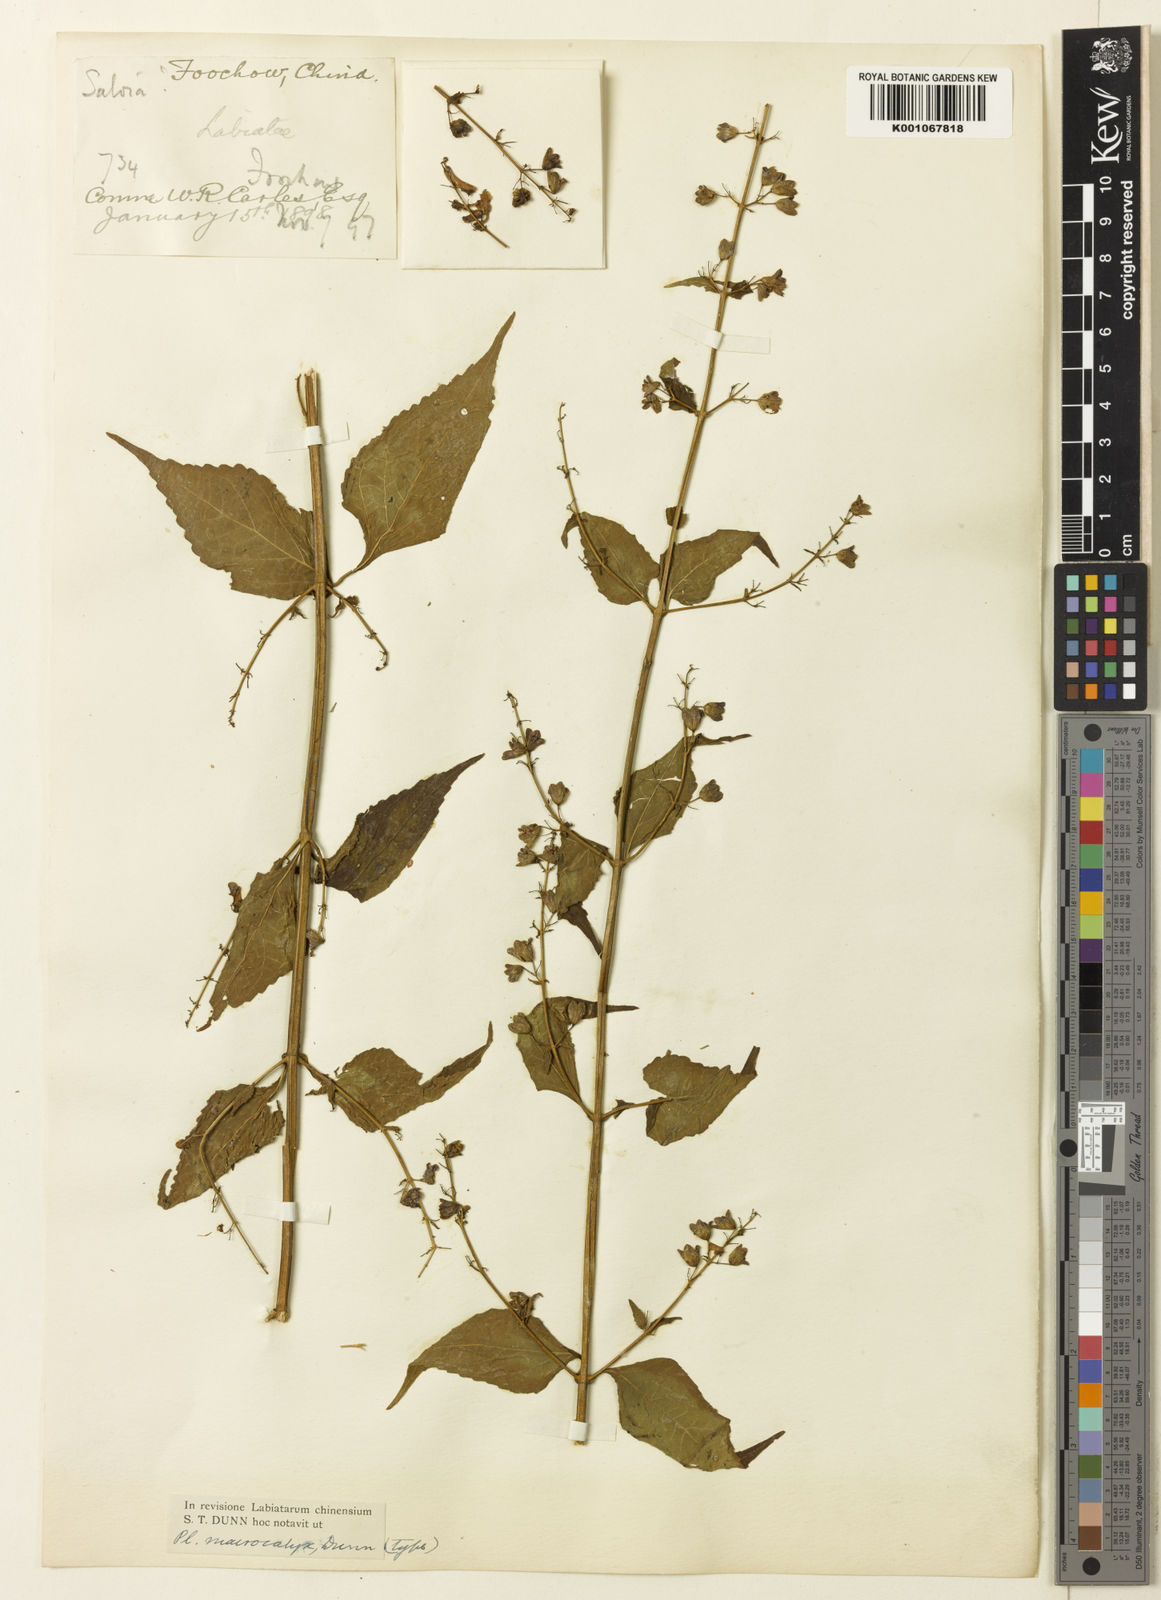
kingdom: Plantae
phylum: Tracheophyta
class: Magnoliopsida
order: Lamiales
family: Lamiaceae
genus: Isodon
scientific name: Isodon
